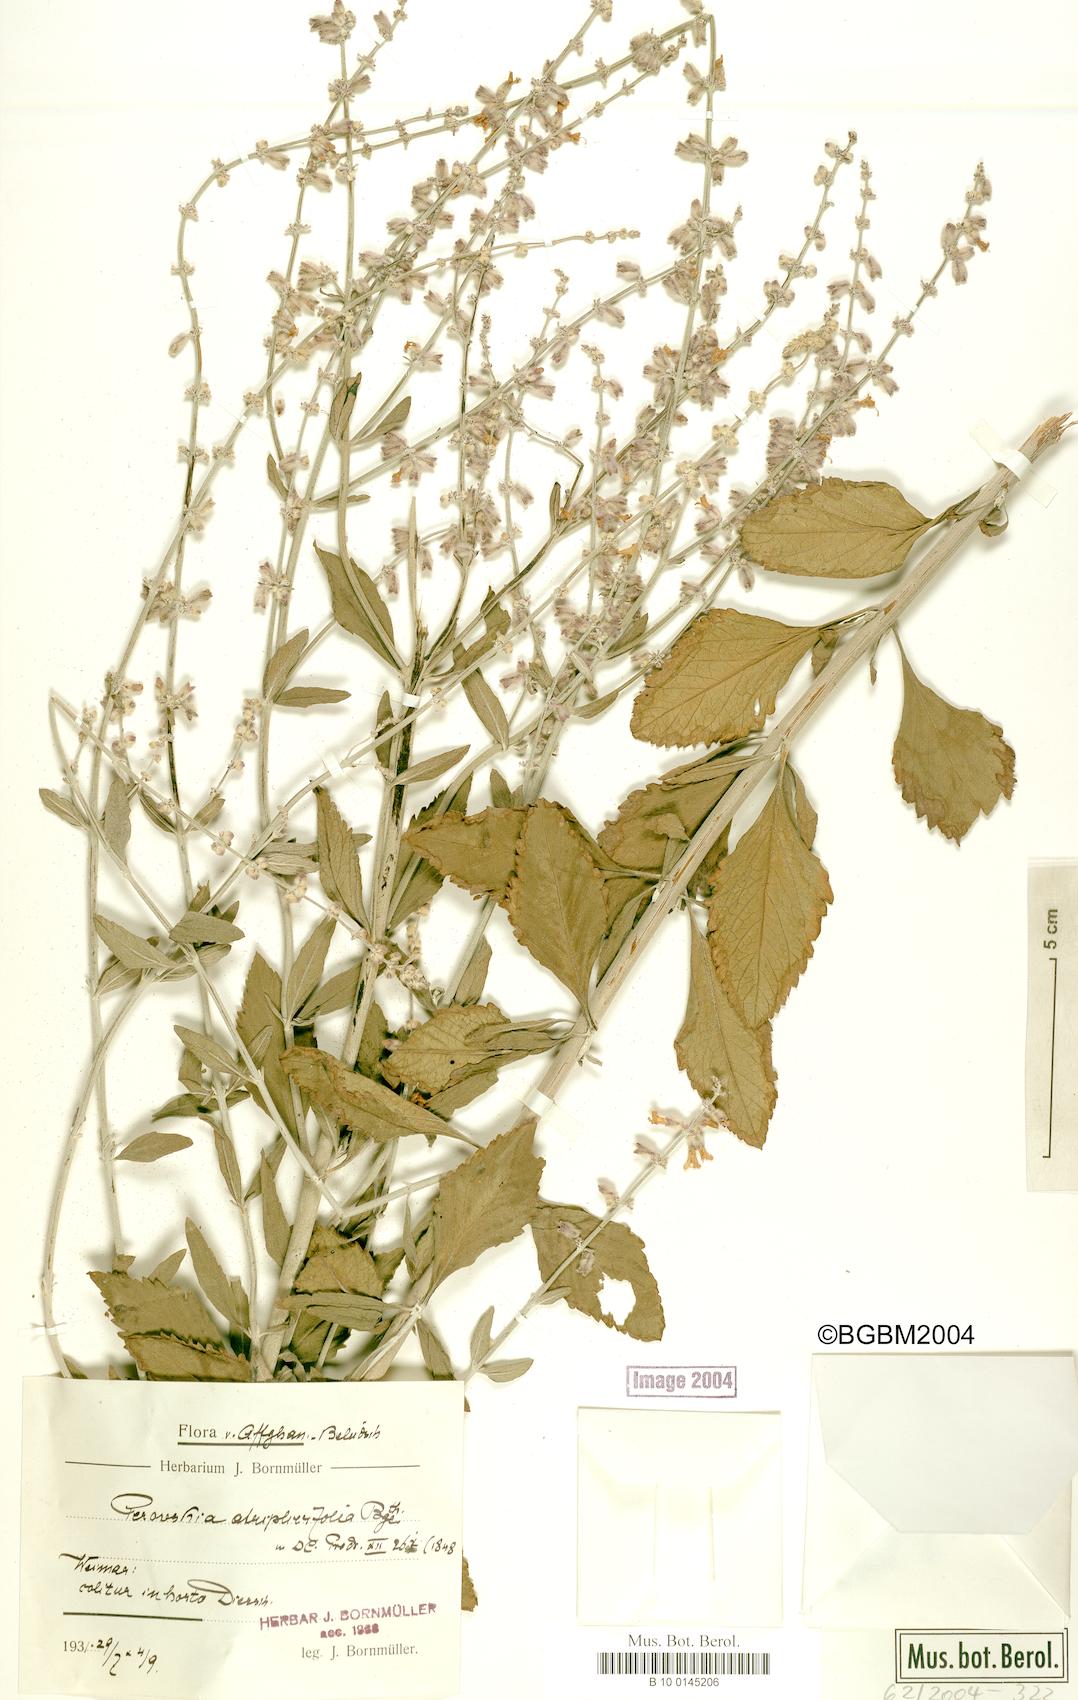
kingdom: Plantae
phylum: Tracheophyta
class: Magnoliopsida
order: Lamiales
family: Lamiaceae
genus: Salvia
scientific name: Salvia yangii
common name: Russian sage
